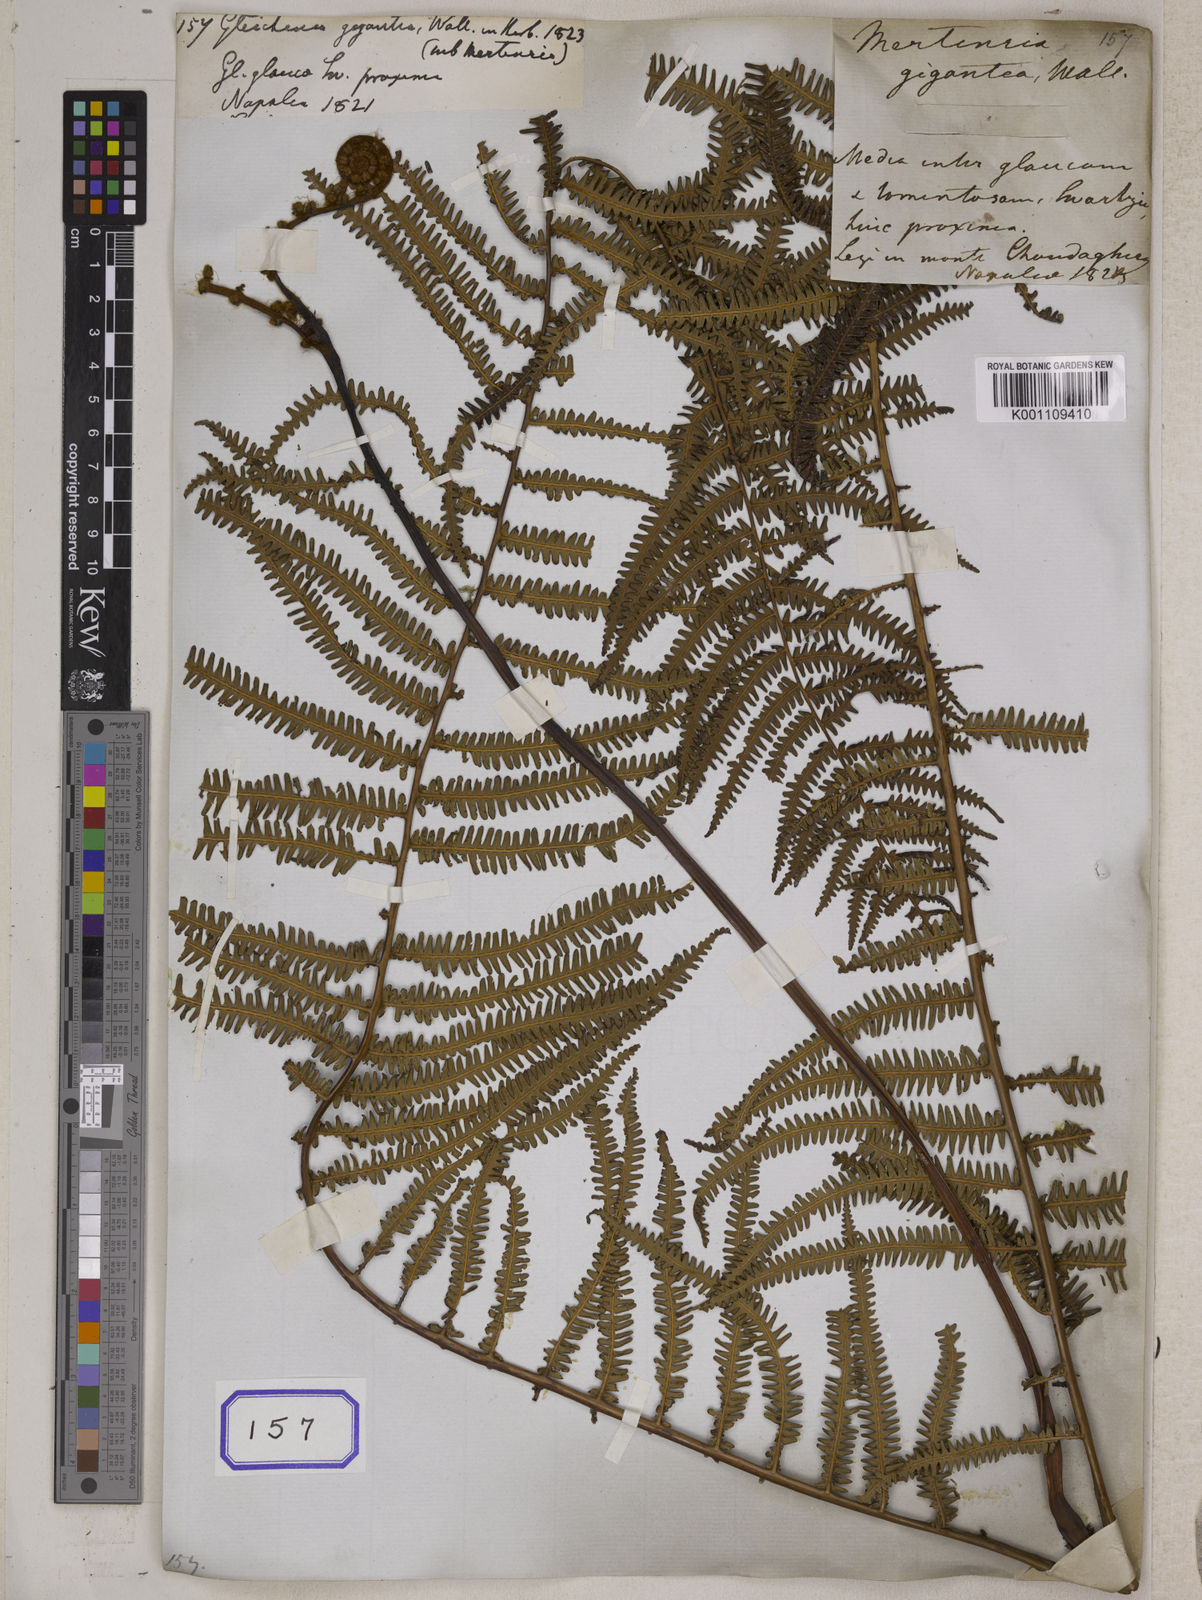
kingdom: Plantae
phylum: Tracheophyta
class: Polypodiopsida
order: Gleicheniales
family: Gleicheniaceae
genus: Gleichenia
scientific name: Gleichenia
